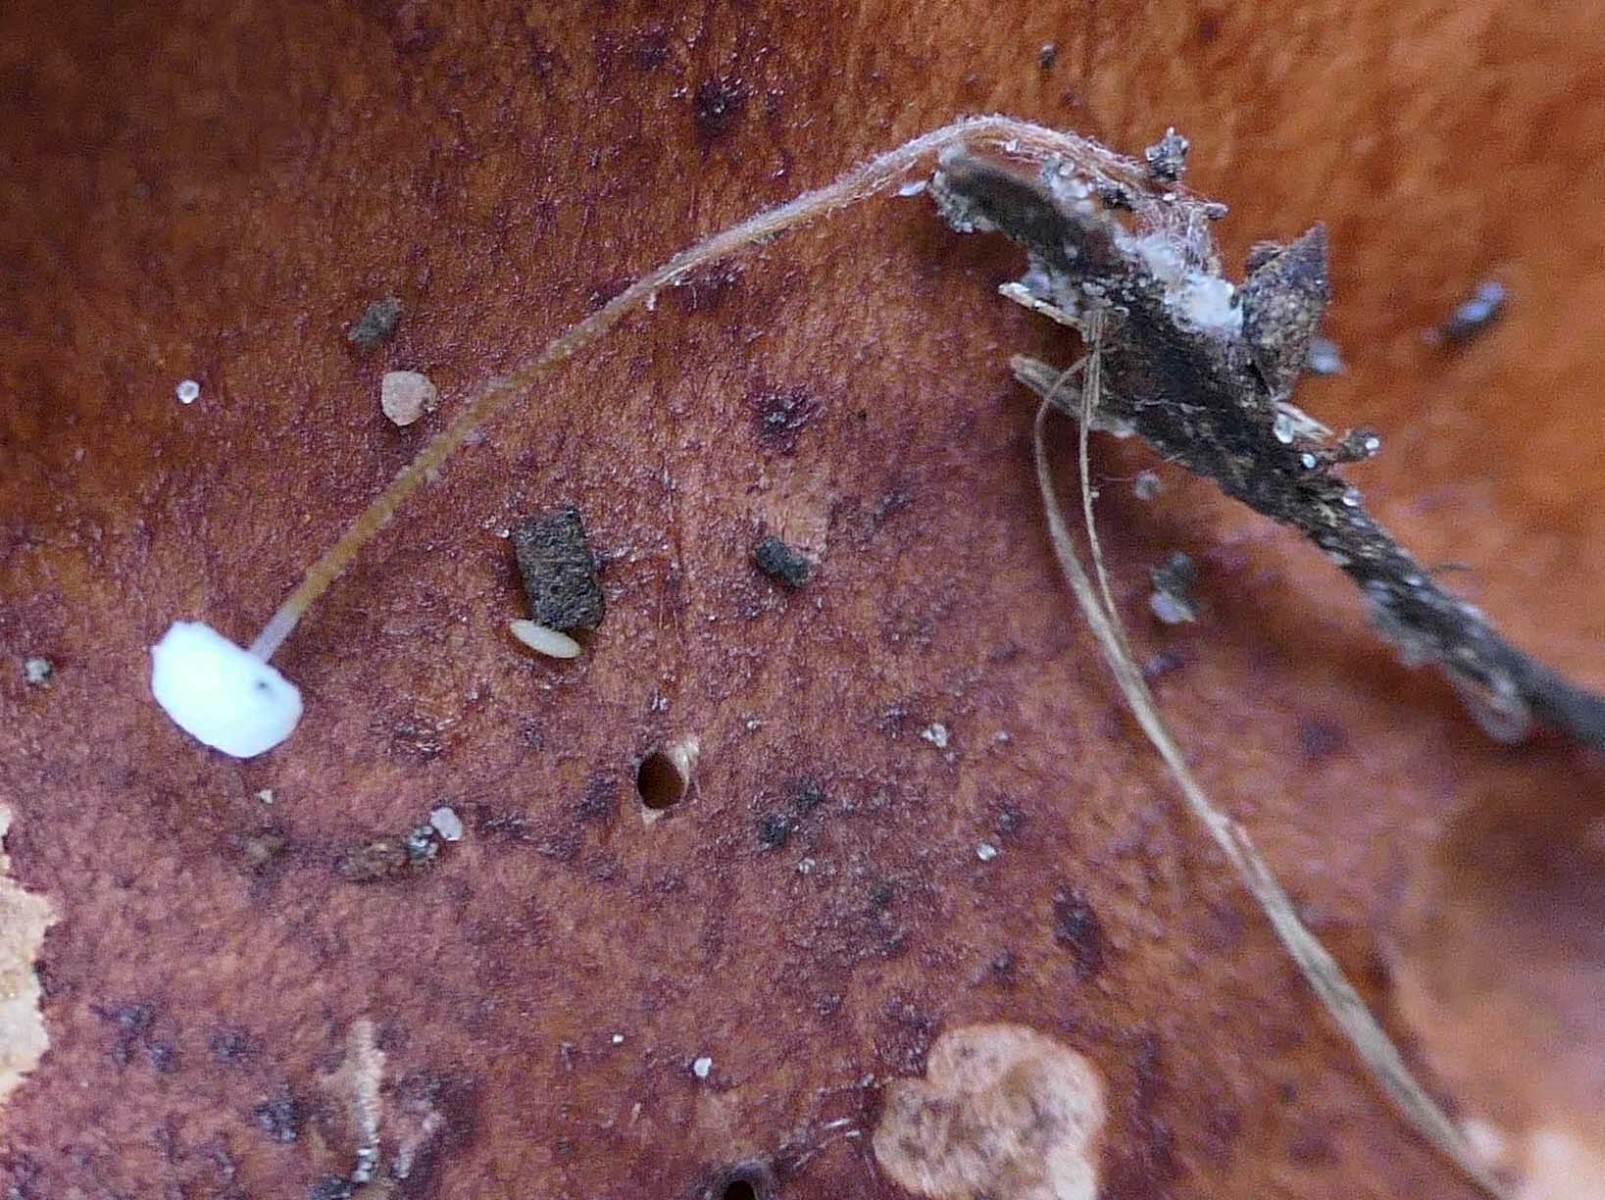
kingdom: Fungi
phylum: Basidiomycota
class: Agaricomycetes
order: Agaricales
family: Physalacriaceae
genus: Rhizomarasmius
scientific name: Rhizomarasmius setosus
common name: bøgeblads-bruskhat
